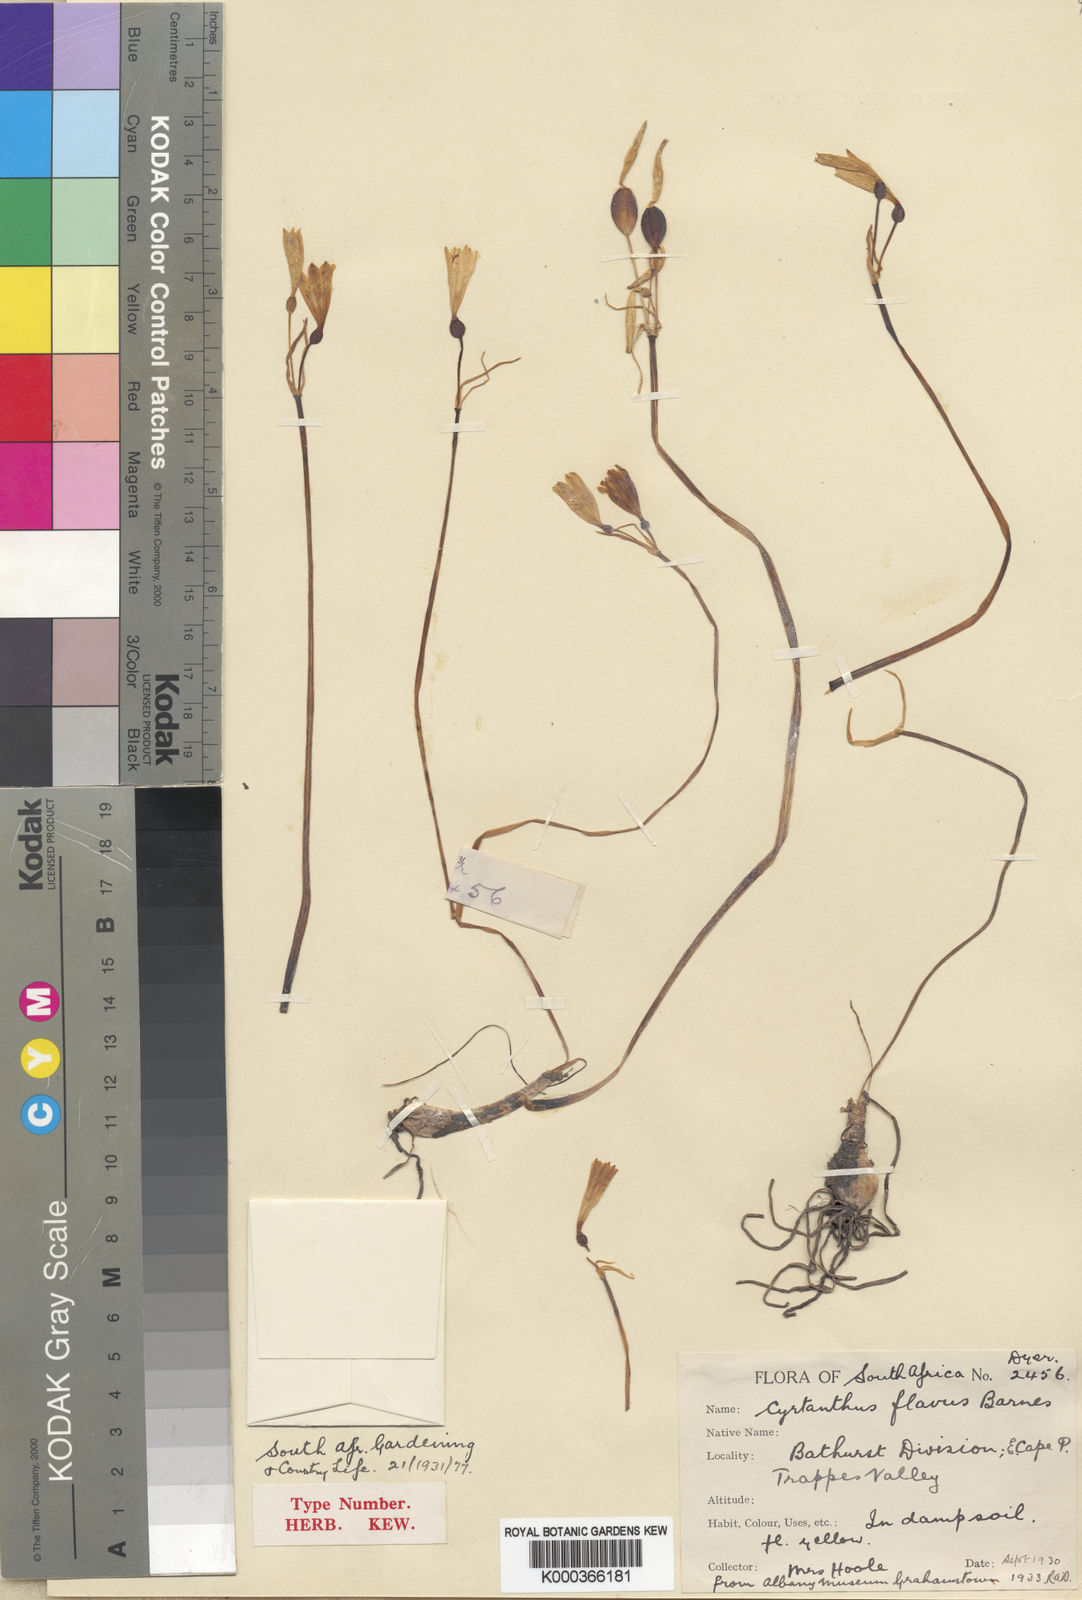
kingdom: Plantae
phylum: Tracheophyta
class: Liliopsida
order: Asparagales
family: Amaryllidaceae
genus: Cyrtanthus
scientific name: Cyrtanthus flavus
